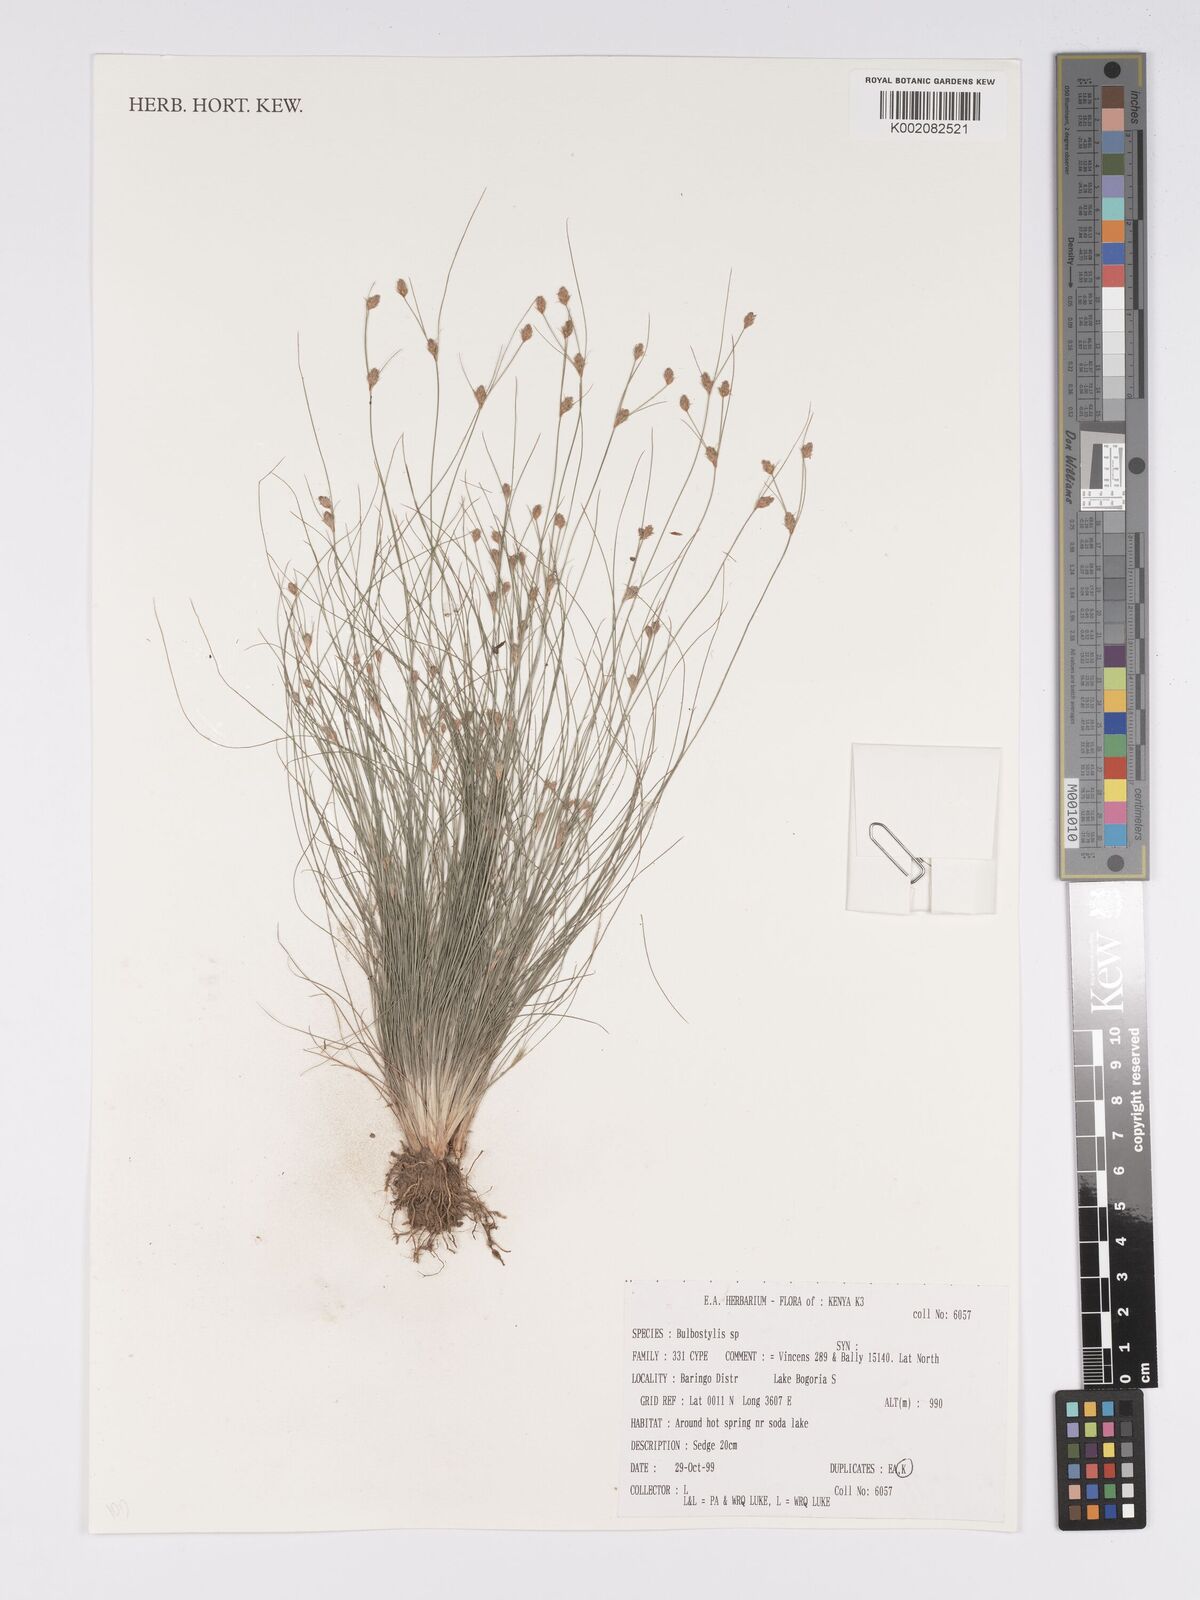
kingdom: Plantae
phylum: Tracheophyta
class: Liliopsida
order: Poales
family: Cyperaceae
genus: Bulbostylis
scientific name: Bulbostylis argenteobrunea
